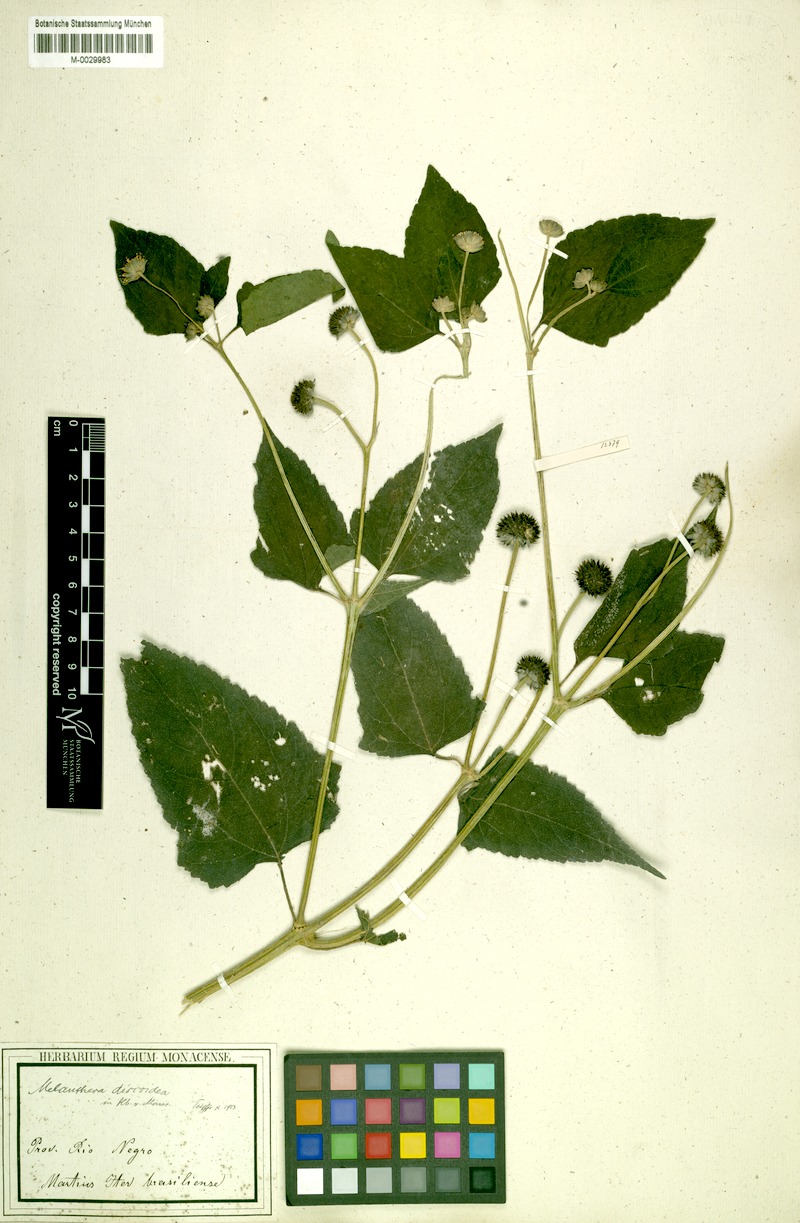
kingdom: Plantae
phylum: Tracheophyta
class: Magnoliopsida
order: Asterales
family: Asteraceae
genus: Melanthera
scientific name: Melanthera nivea
